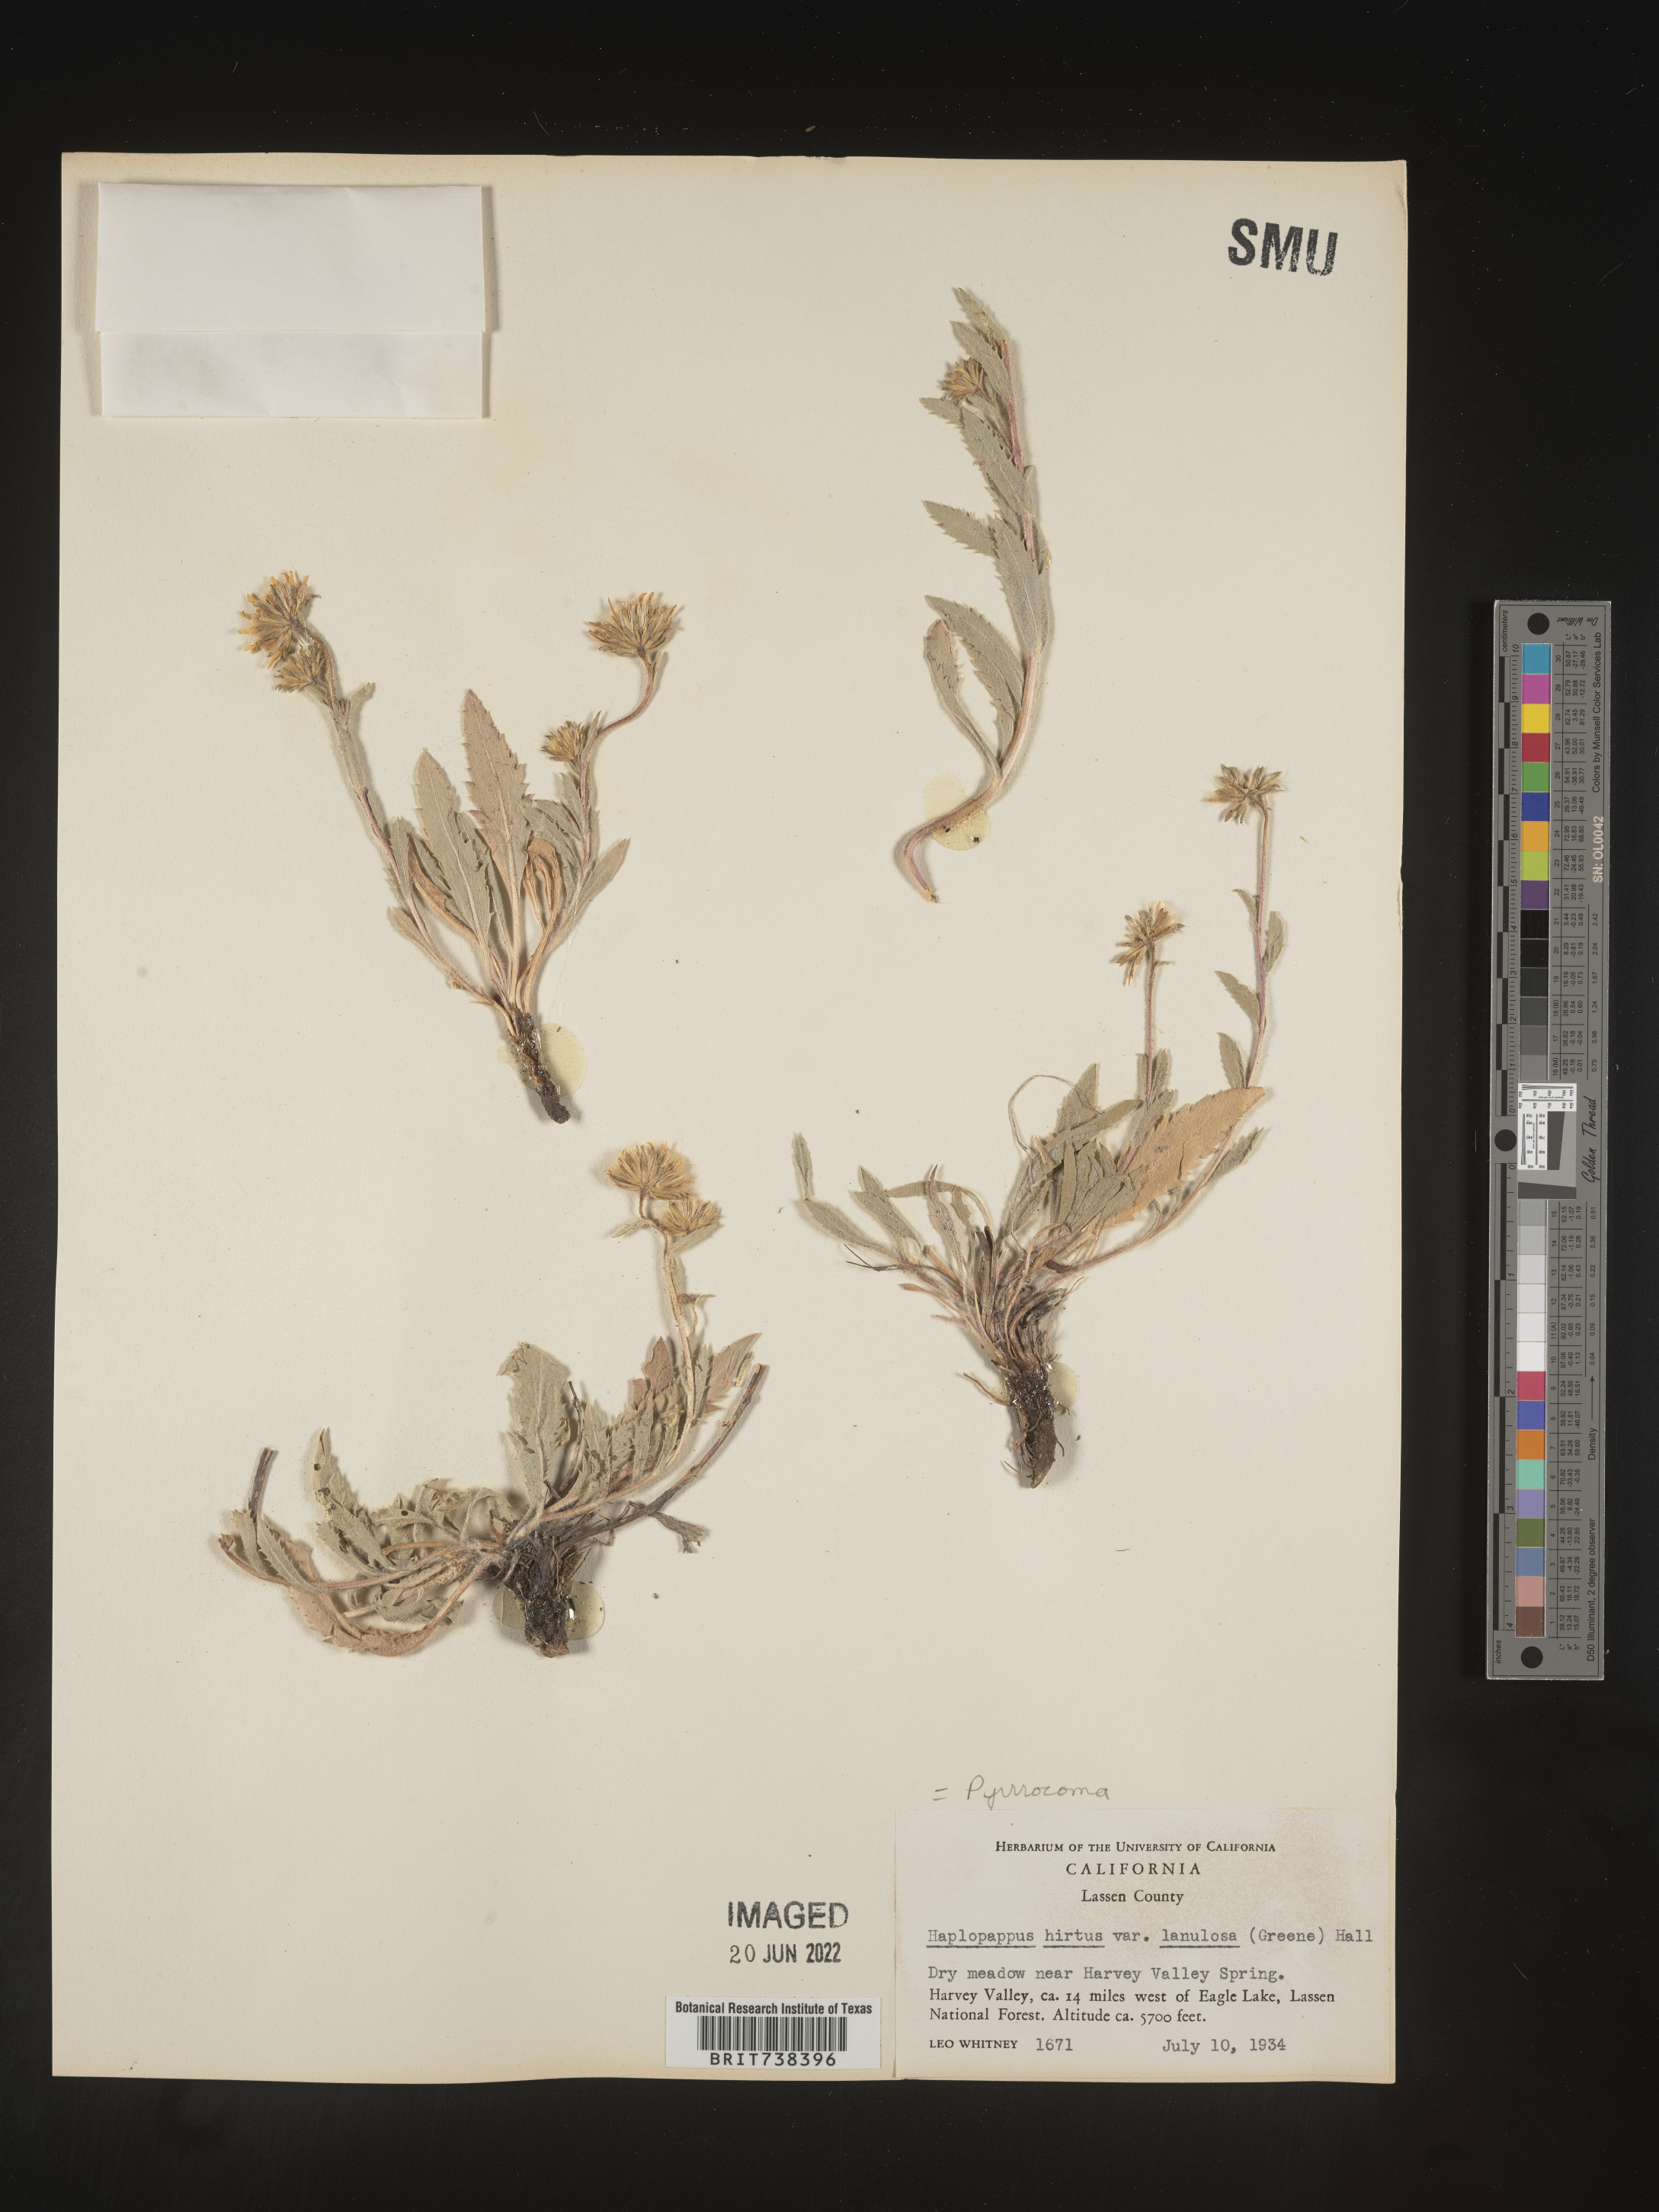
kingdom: Plantae
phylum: Tracheophyta
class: Magnoliopsida
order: Asterales
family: Asteraceae
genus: Pyrrocoma
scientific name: Pyrrocoma hirta
